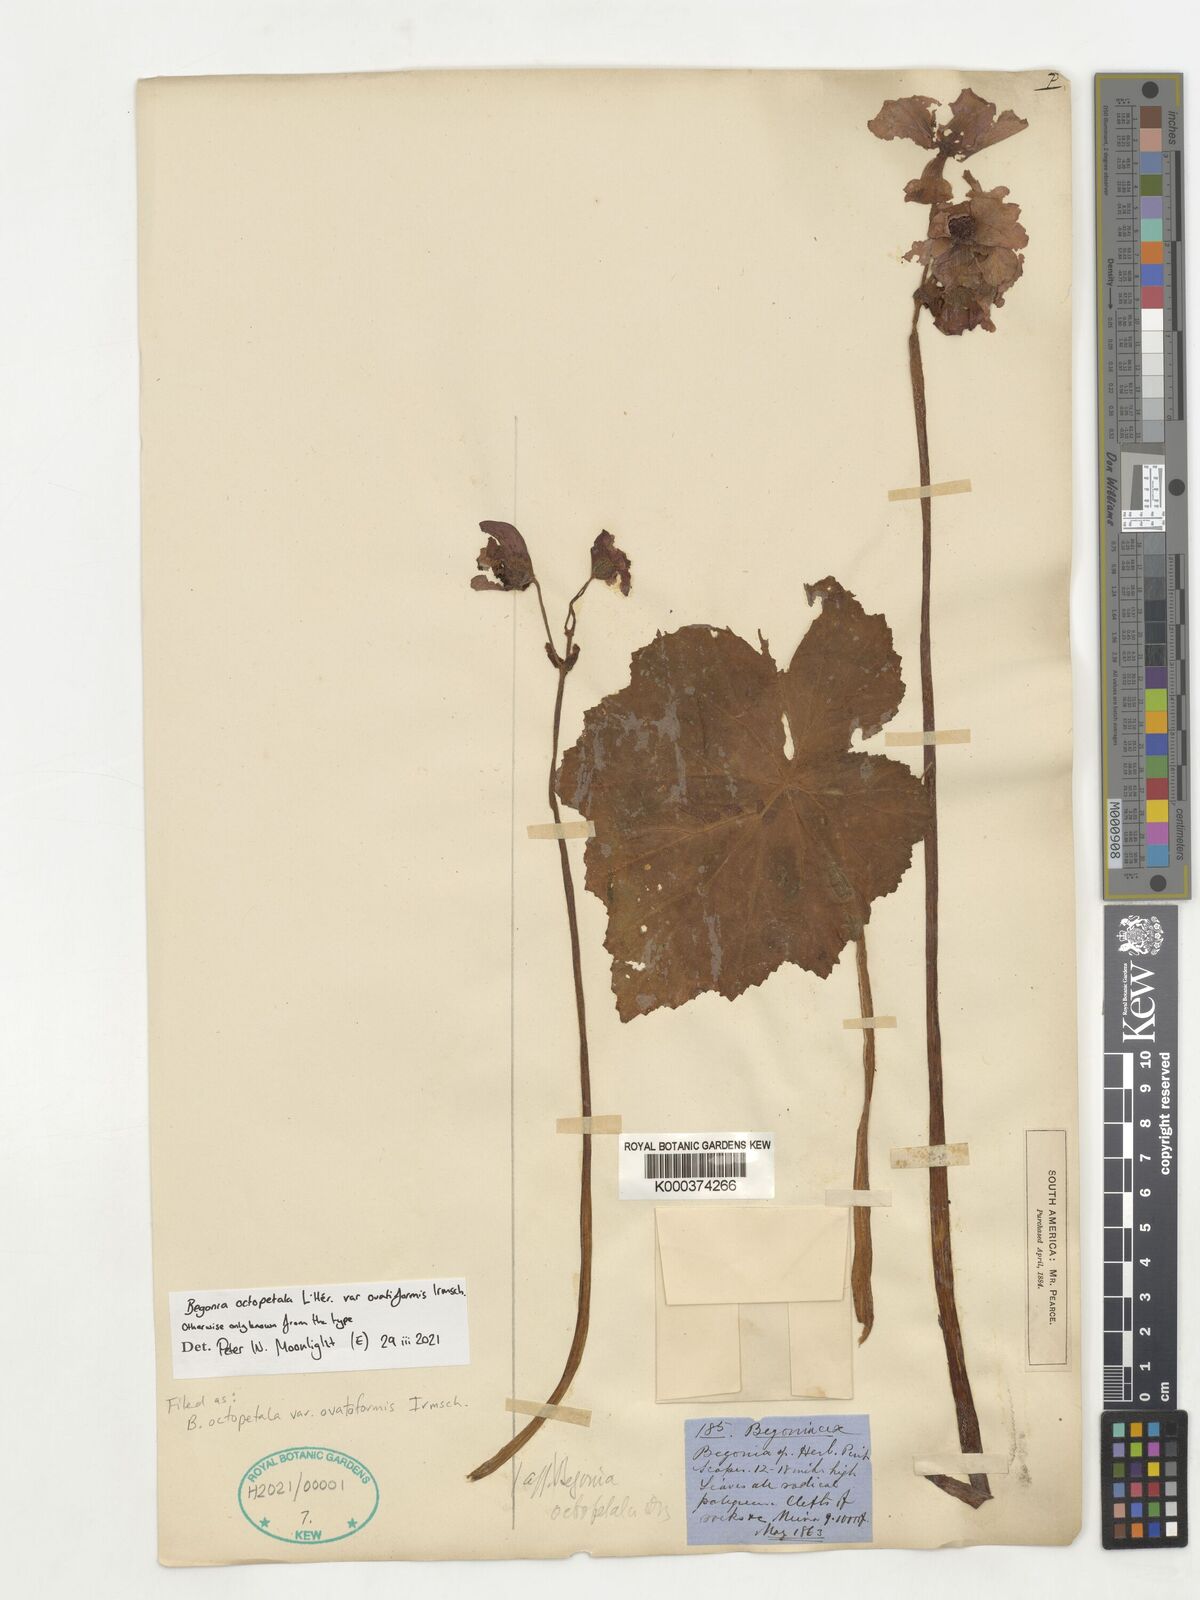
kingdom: Plantae
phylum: Tracheophyta
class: Magnoliopsida
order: Cucurbitales
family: Begoniaceae
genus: Begonia
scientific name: Begonia octopetala
